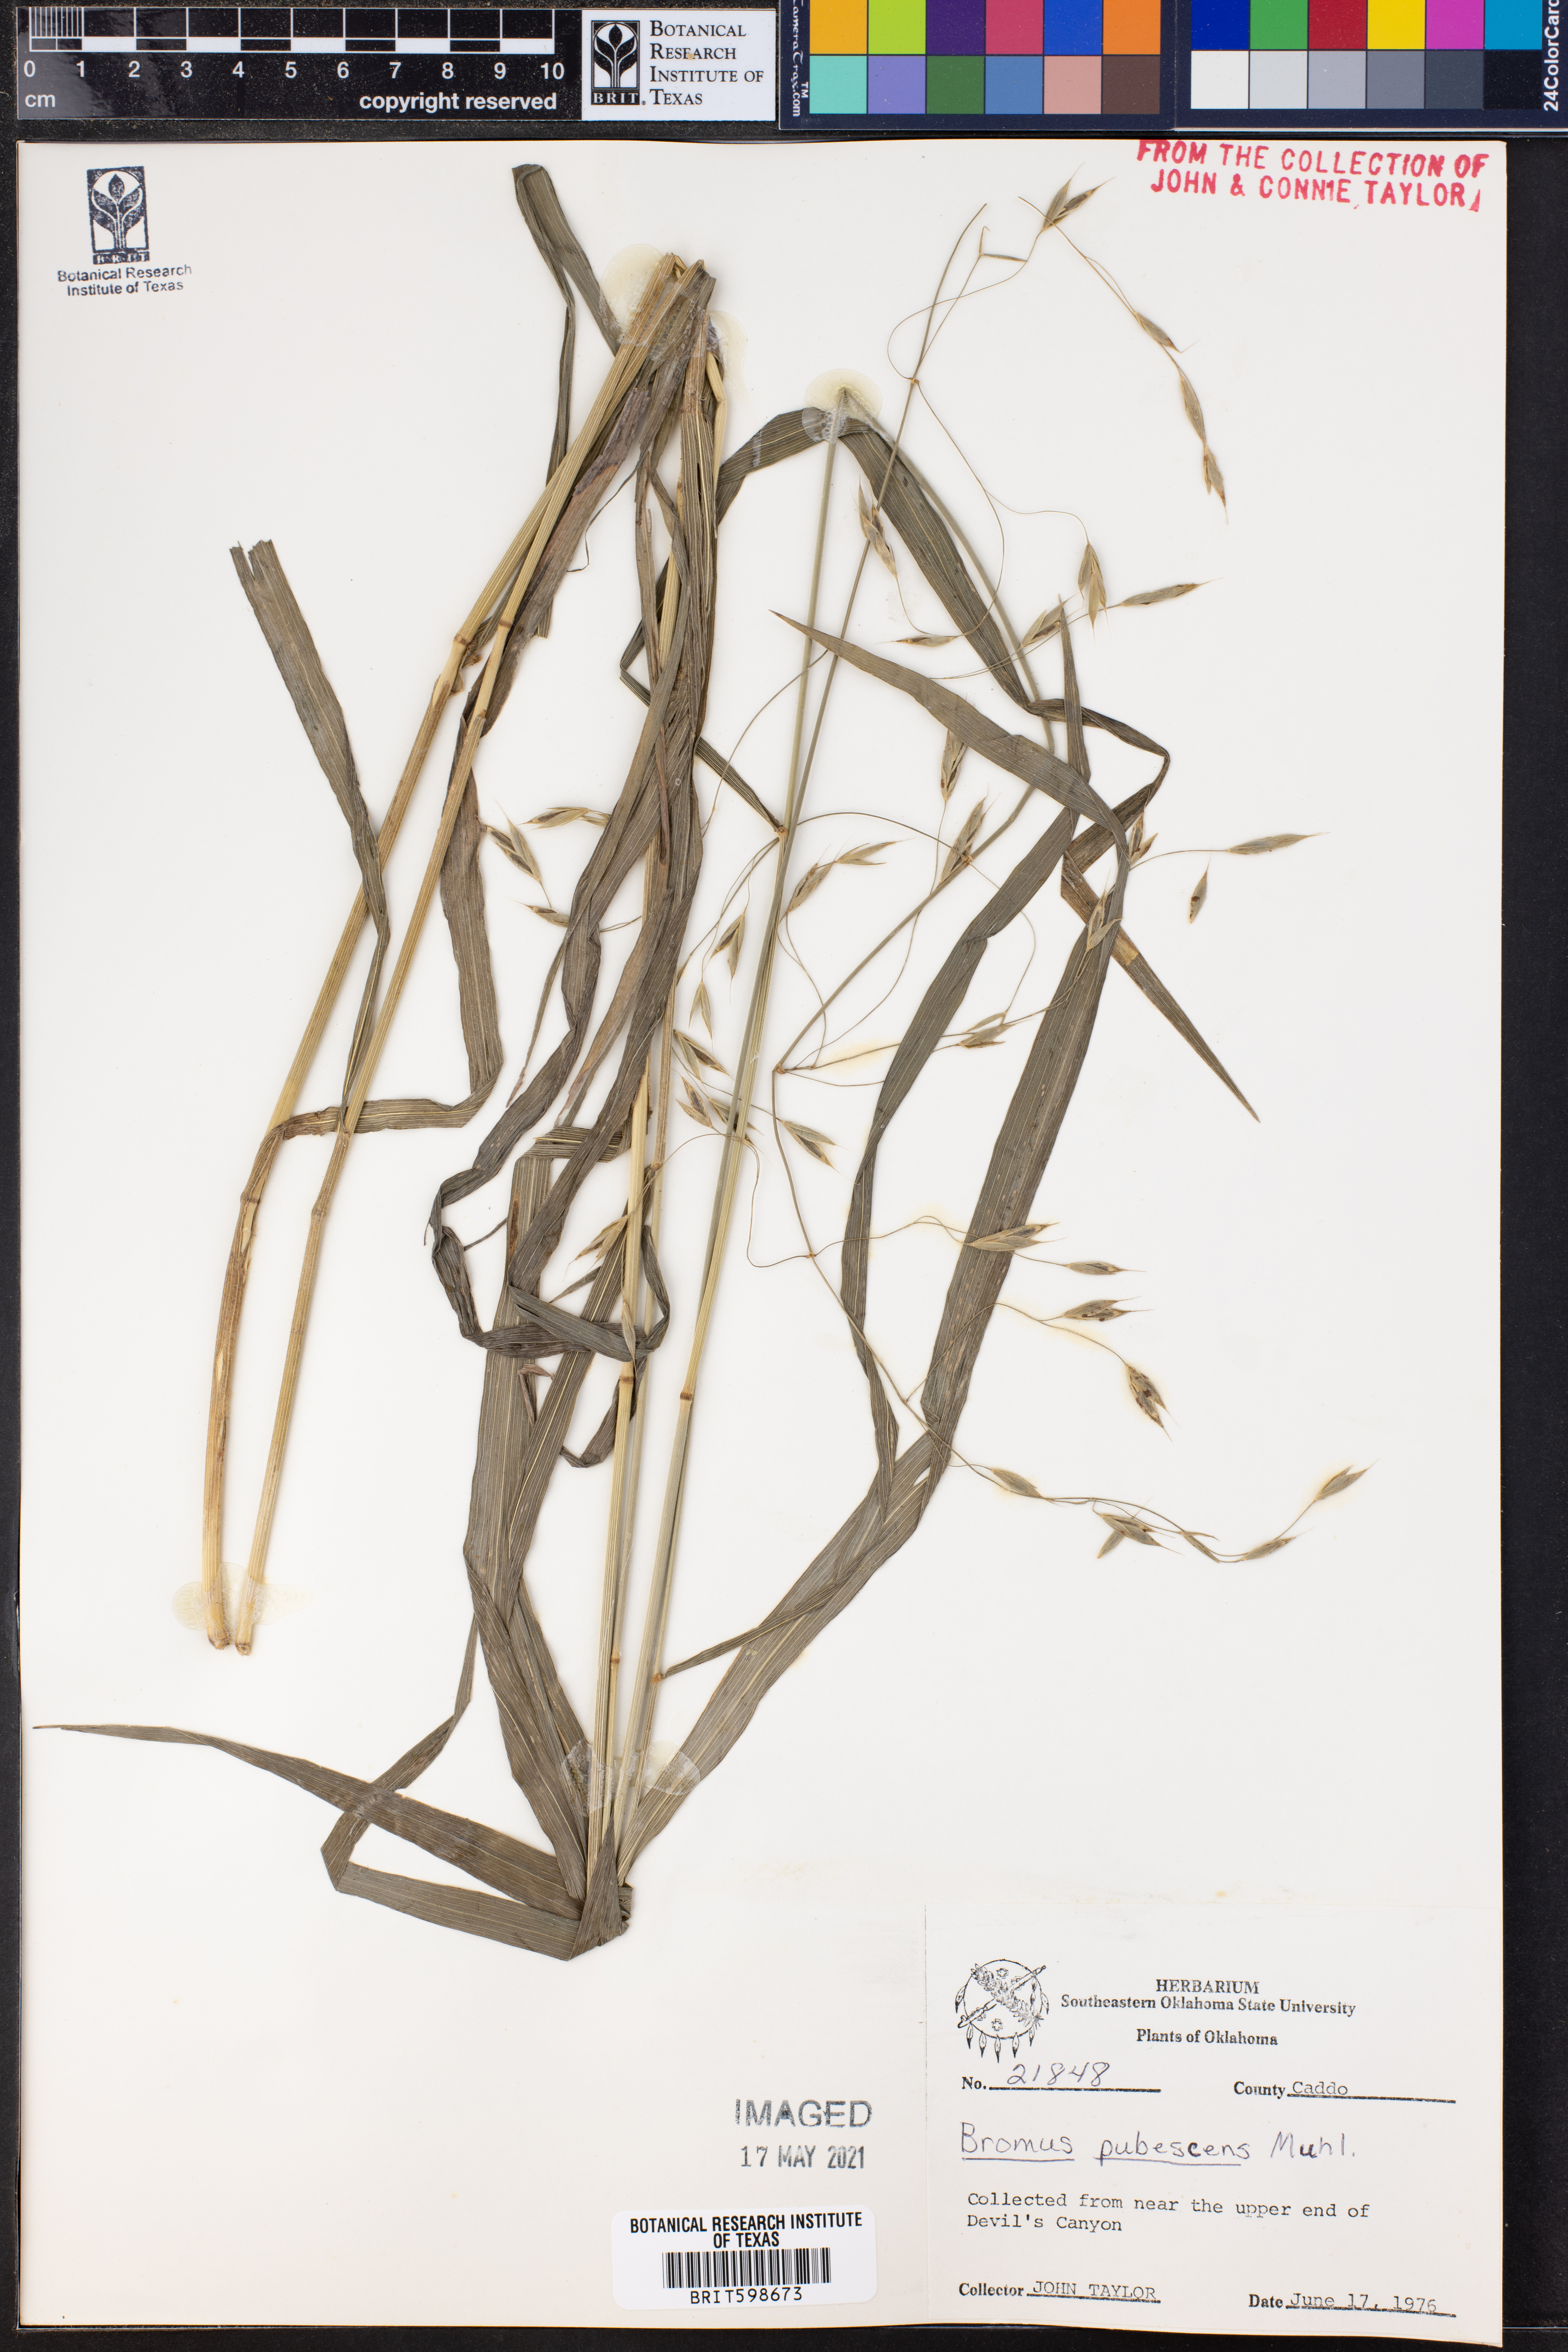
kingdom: Plantae
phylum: Tracheophyta
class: Liliopsida
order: Poales
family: Poaceae
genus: Bromus
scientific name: Bromus pubescens
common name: Hairy wood brome grass
